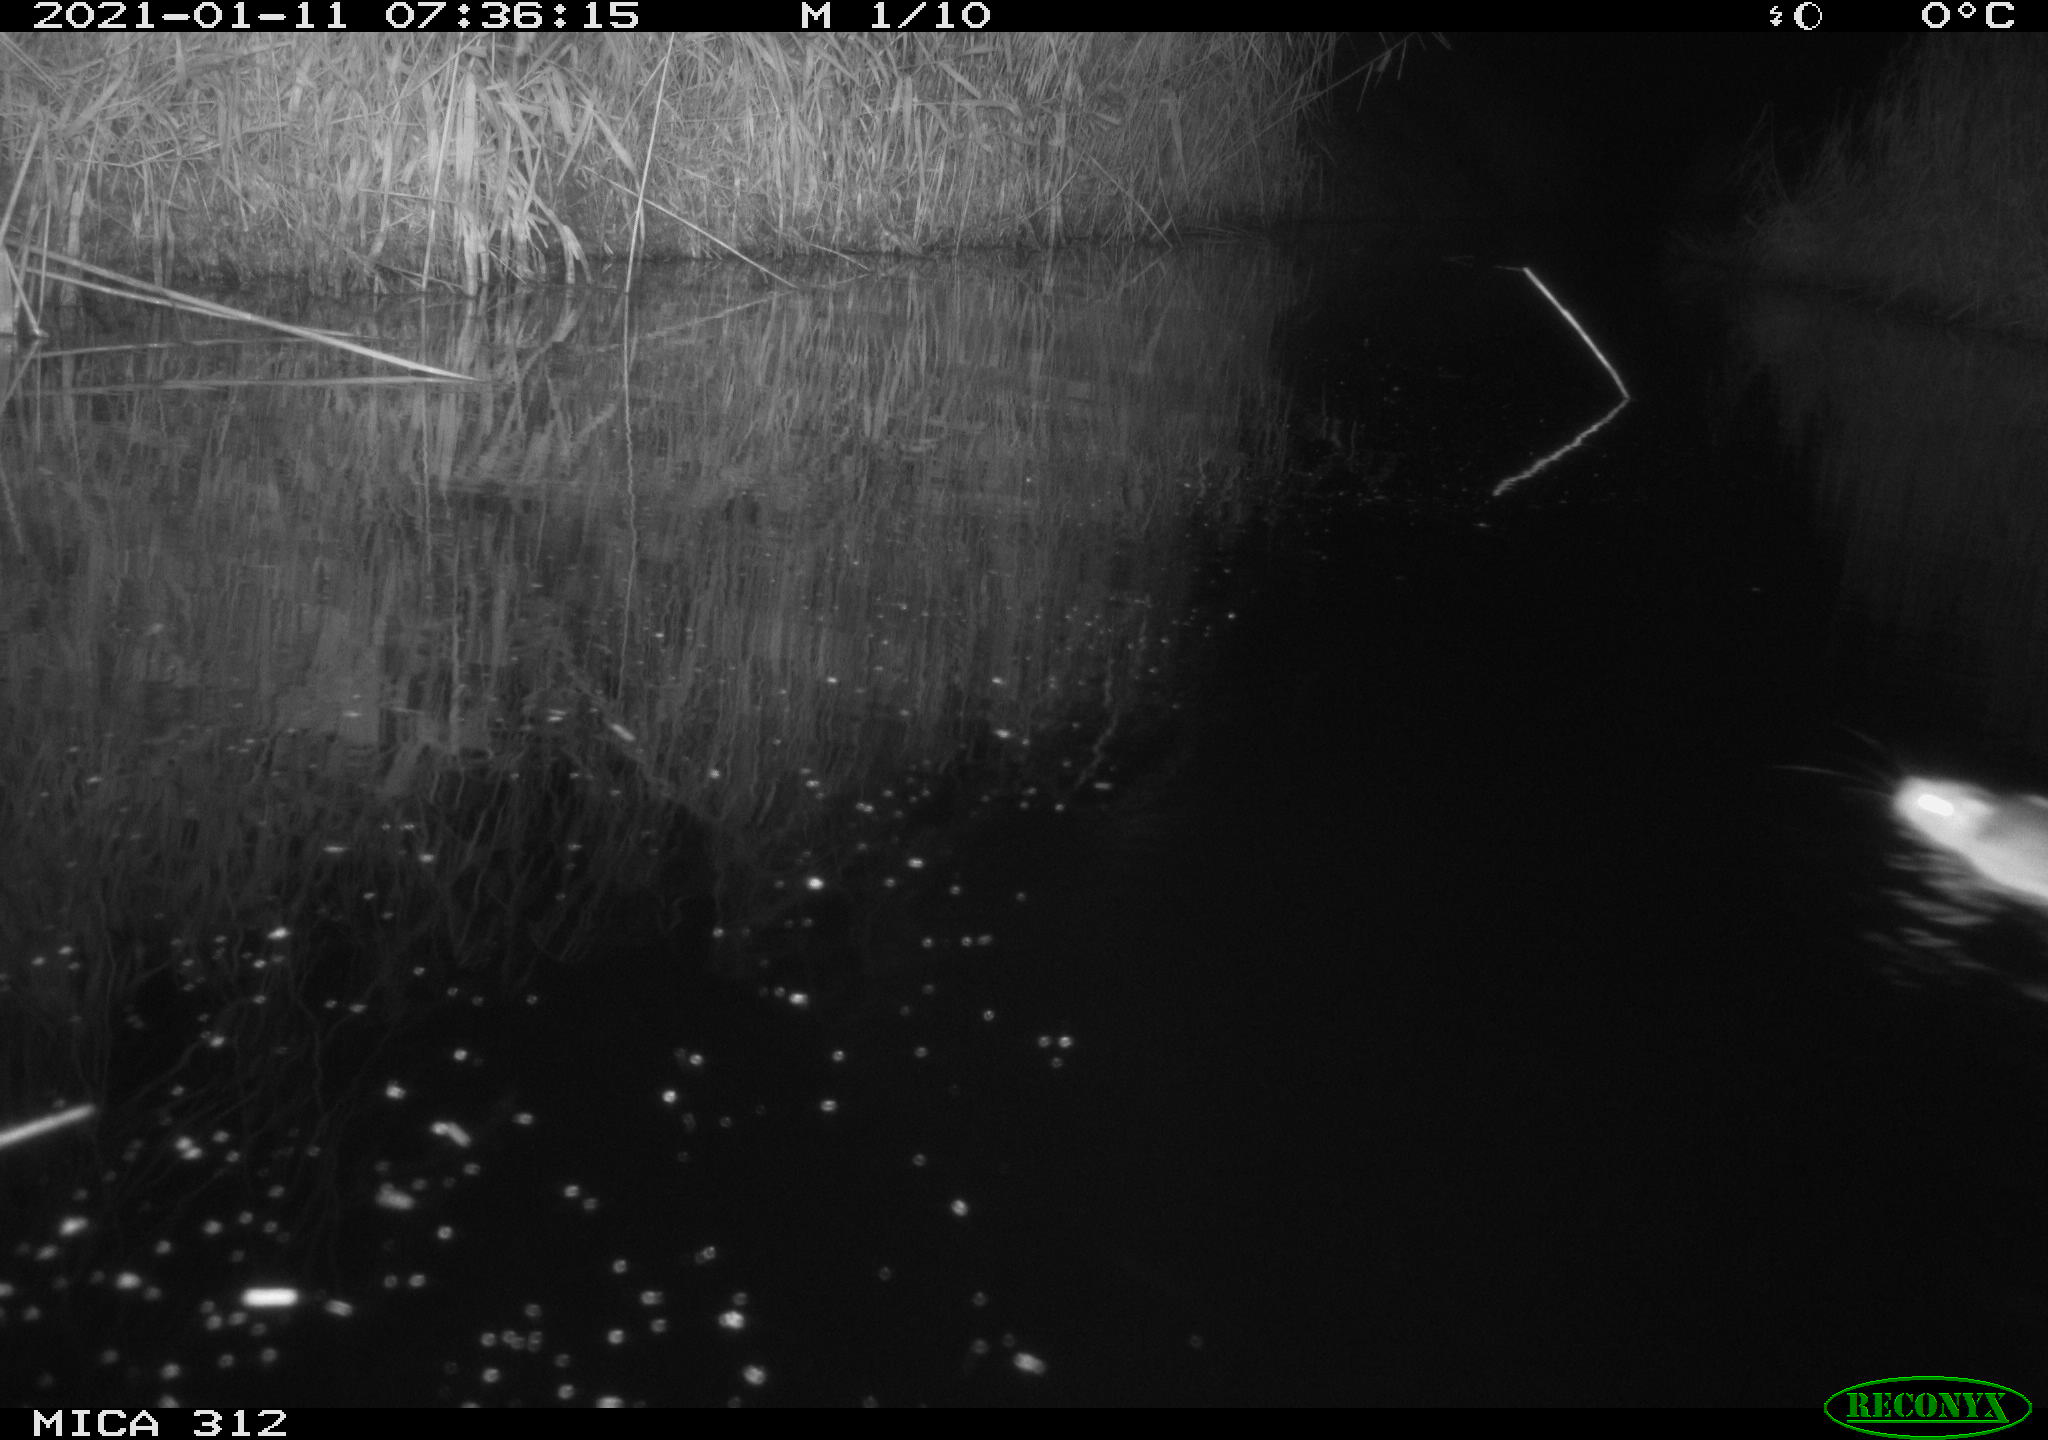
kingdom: Animalia
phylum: Chordata
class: Mammalia
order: Rodentia
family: Muridae
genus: Rattus
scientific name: Rattus norvegicus
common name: Brown rat
